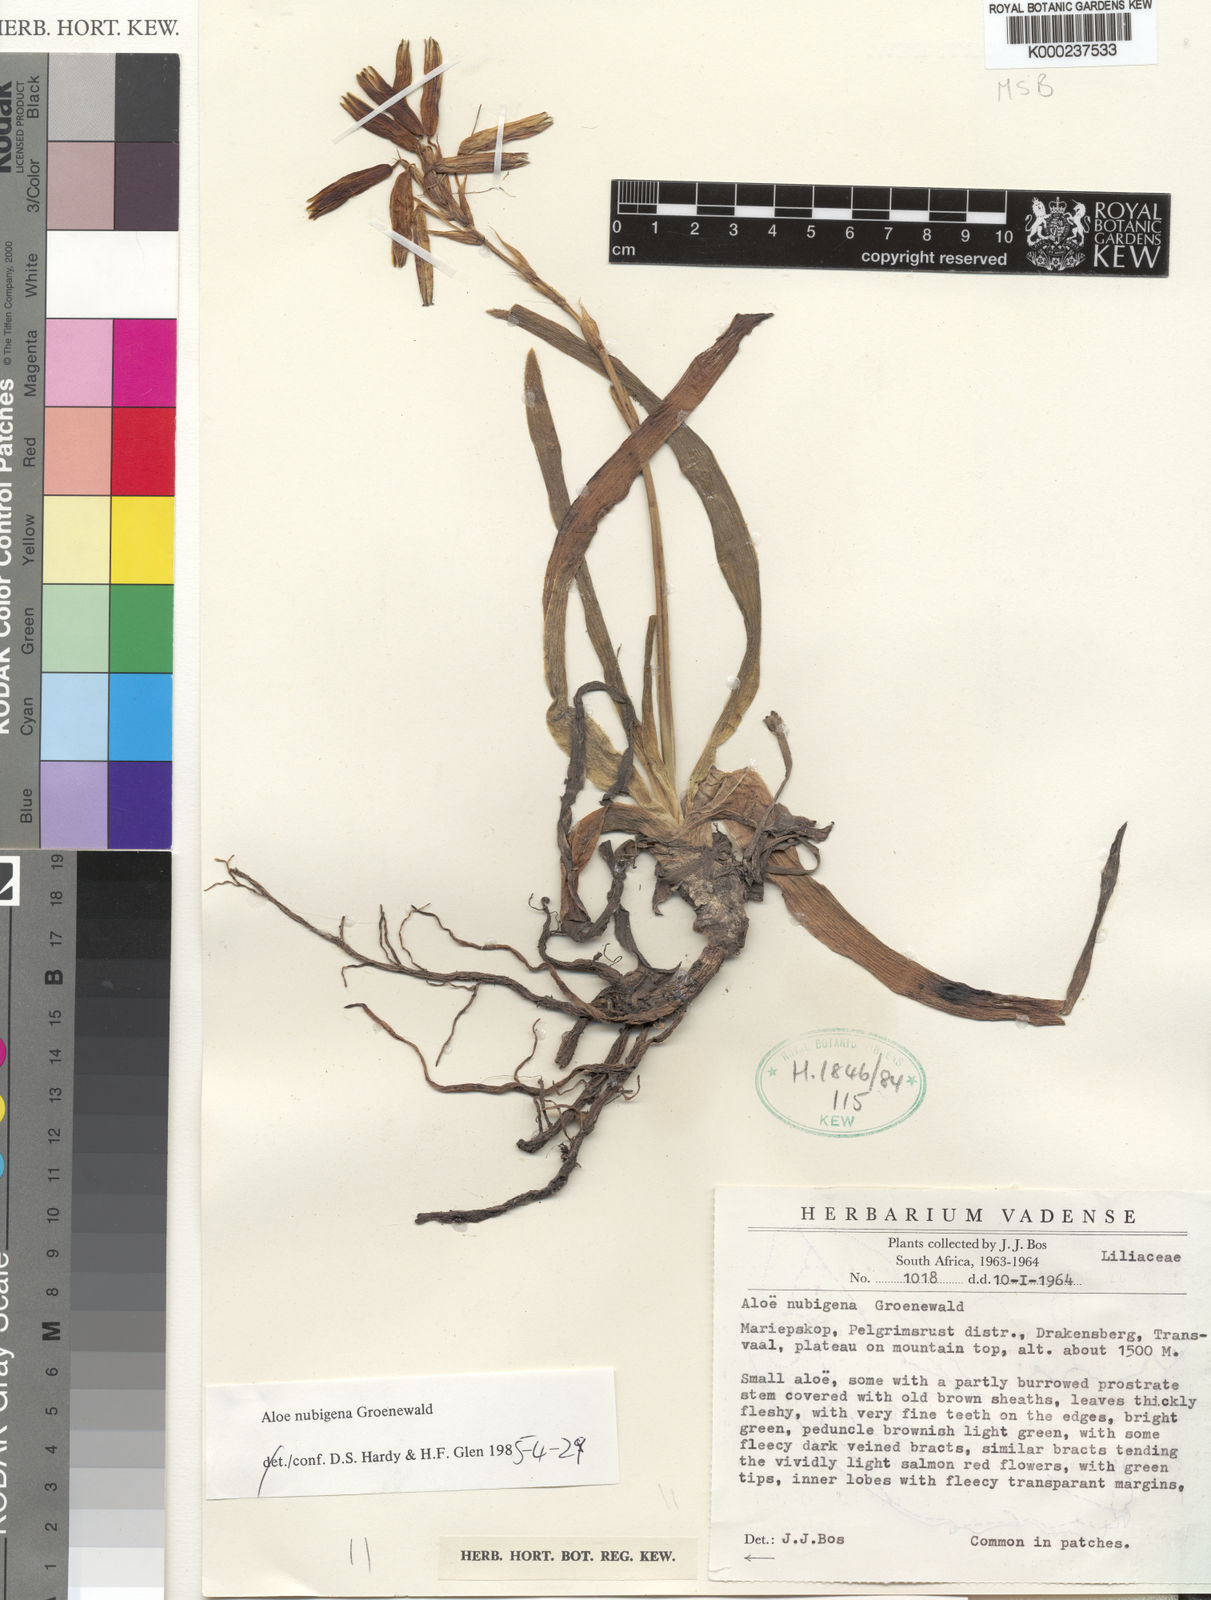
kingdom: Plantae
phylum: Tracheophyta
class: Liliopsida
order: Asparagales
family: Asphodelaceae
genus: Aloe
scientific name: Aloe nubigena
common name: Cloud-borne aloe
